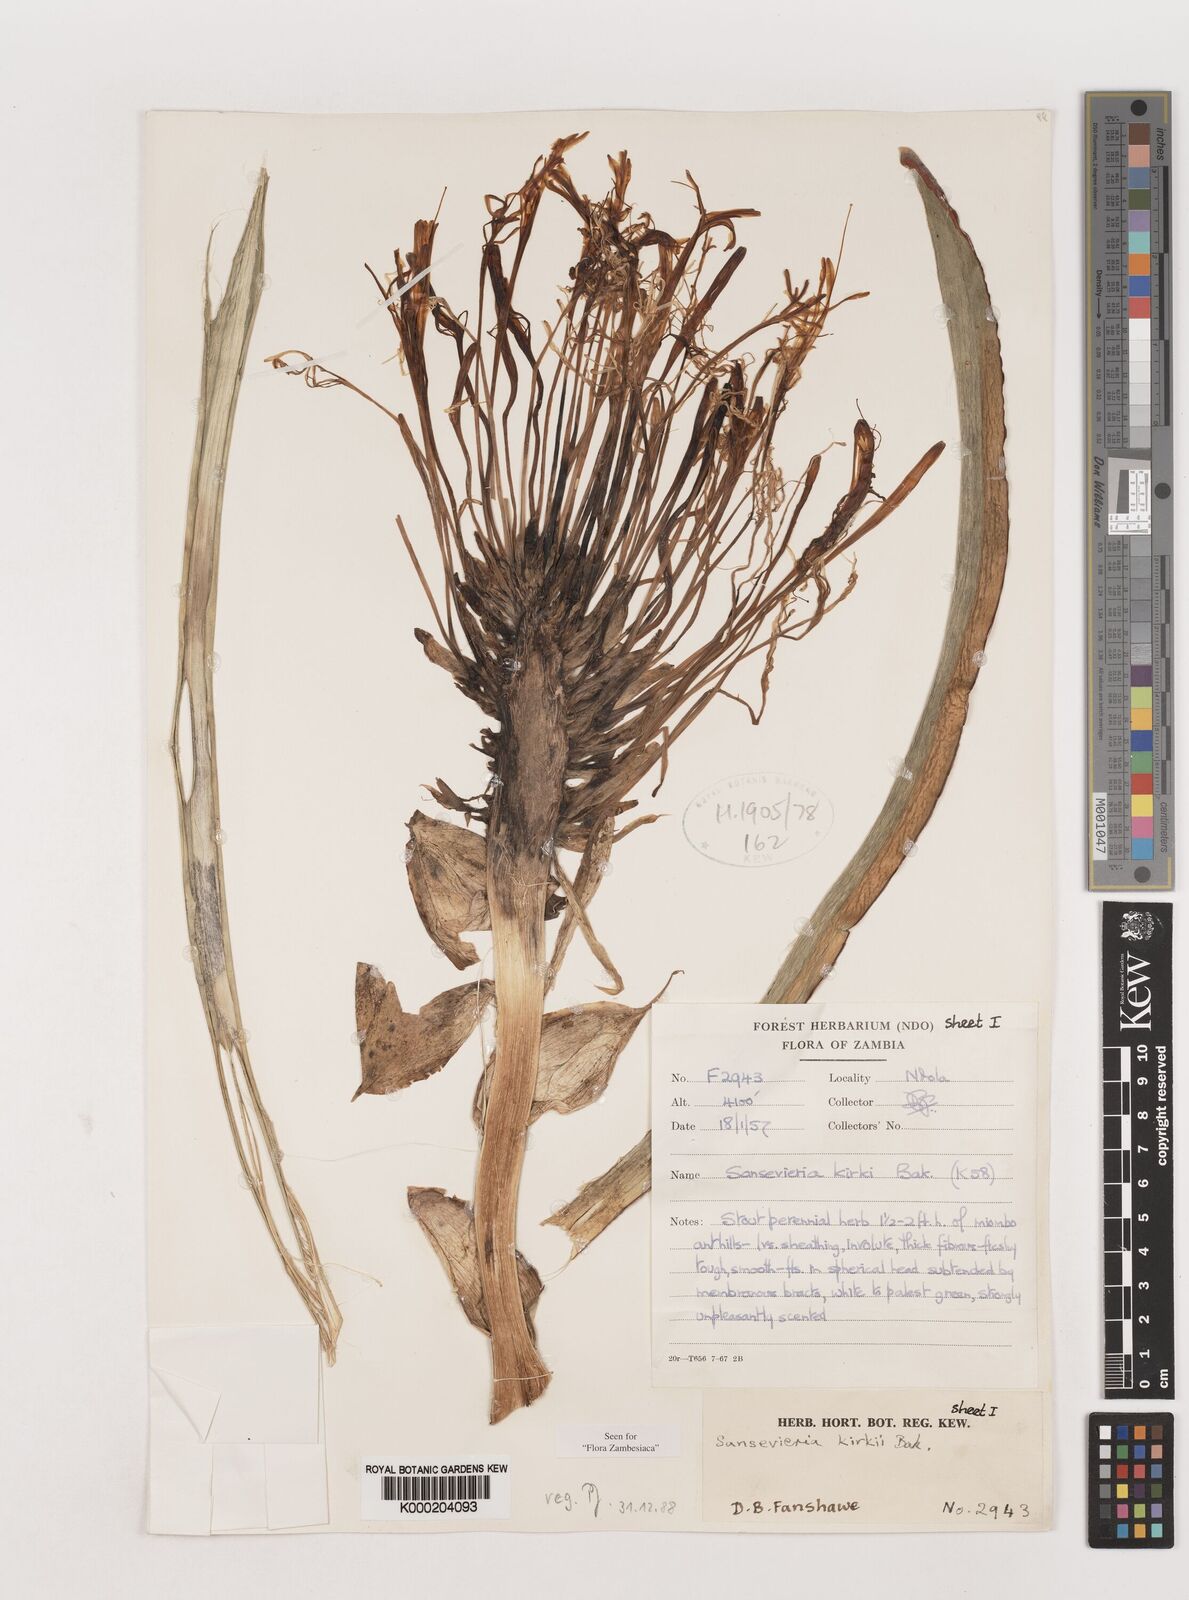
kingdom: Plantae
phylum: Tracheophyta
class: Liliopsida
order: Asparagales
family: Asparagaceae
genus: Dracaena
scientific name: Dracaena pethera
